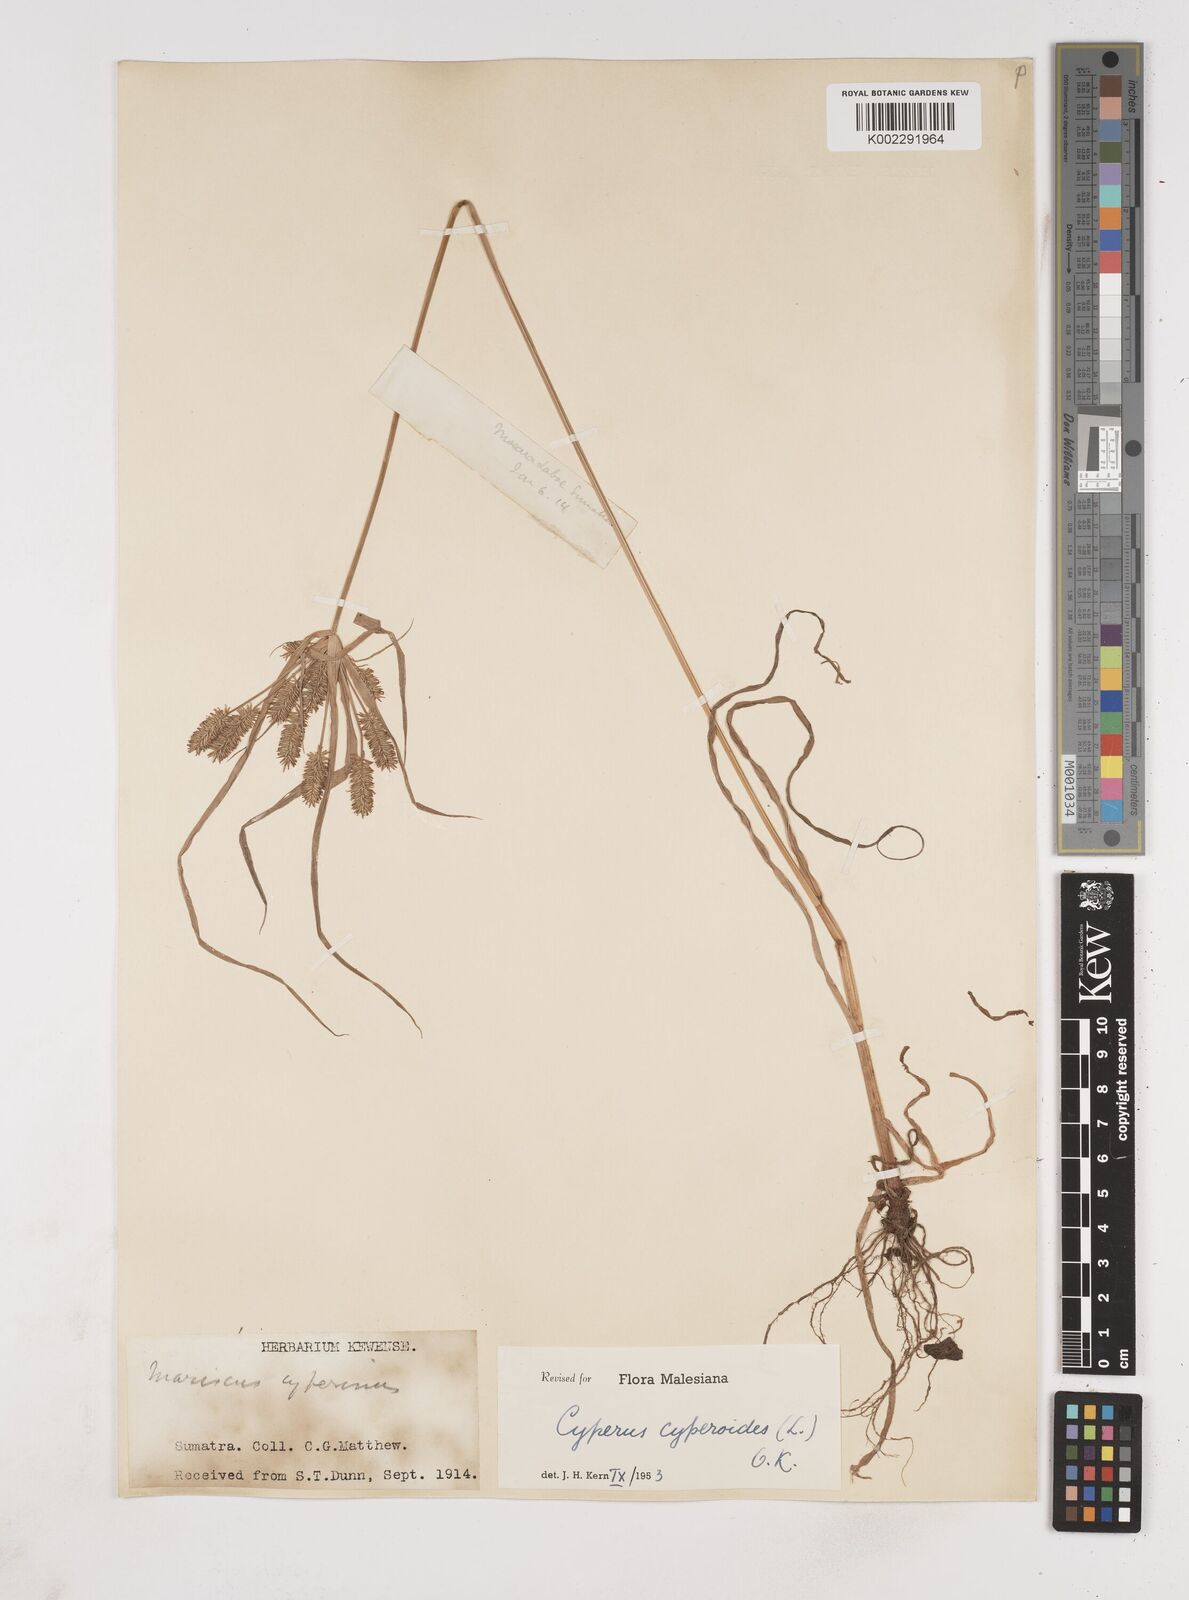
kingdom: Plantae
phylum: Tracheophyta
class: Liliopsida
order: Poales
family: Cyperaceae
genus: Cyperus
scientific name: Cyperus cyperoides
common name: Pacific island flat sedge
